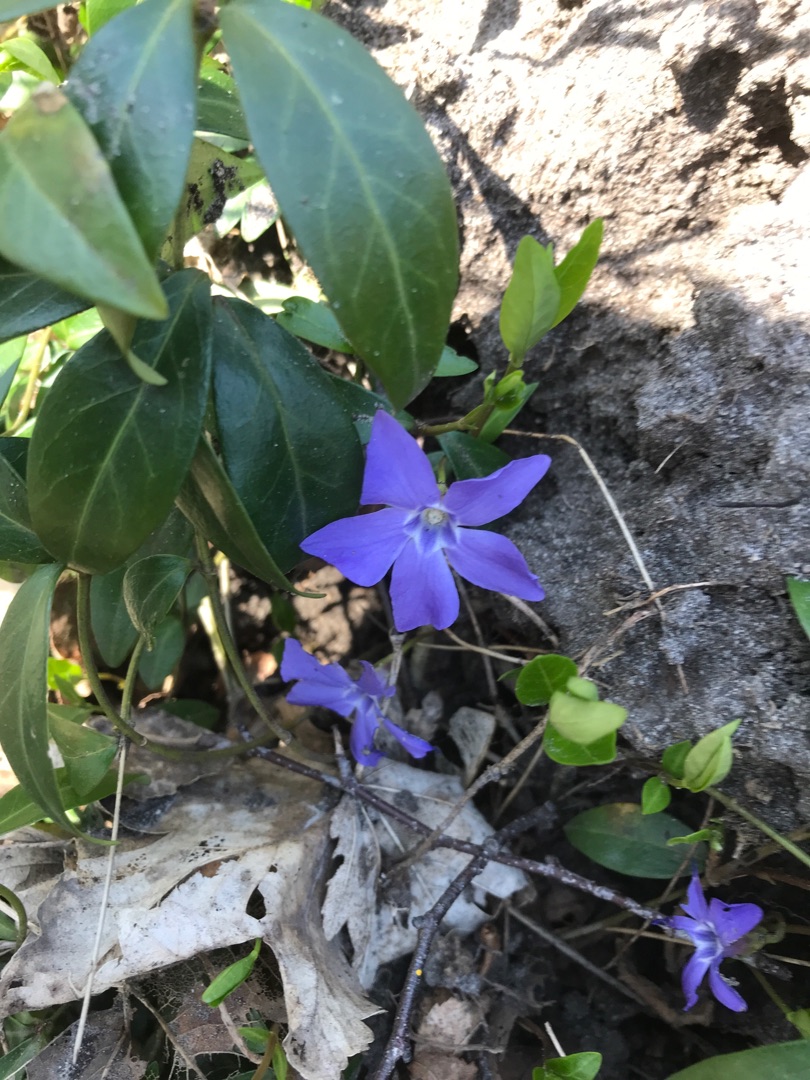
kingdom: Plantae
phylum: Tracheophyta
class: Magnoliopsida
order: Gentianales
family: Apocynaceae
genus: Vinca
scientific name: Vinca minor
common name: Liden singrøn
